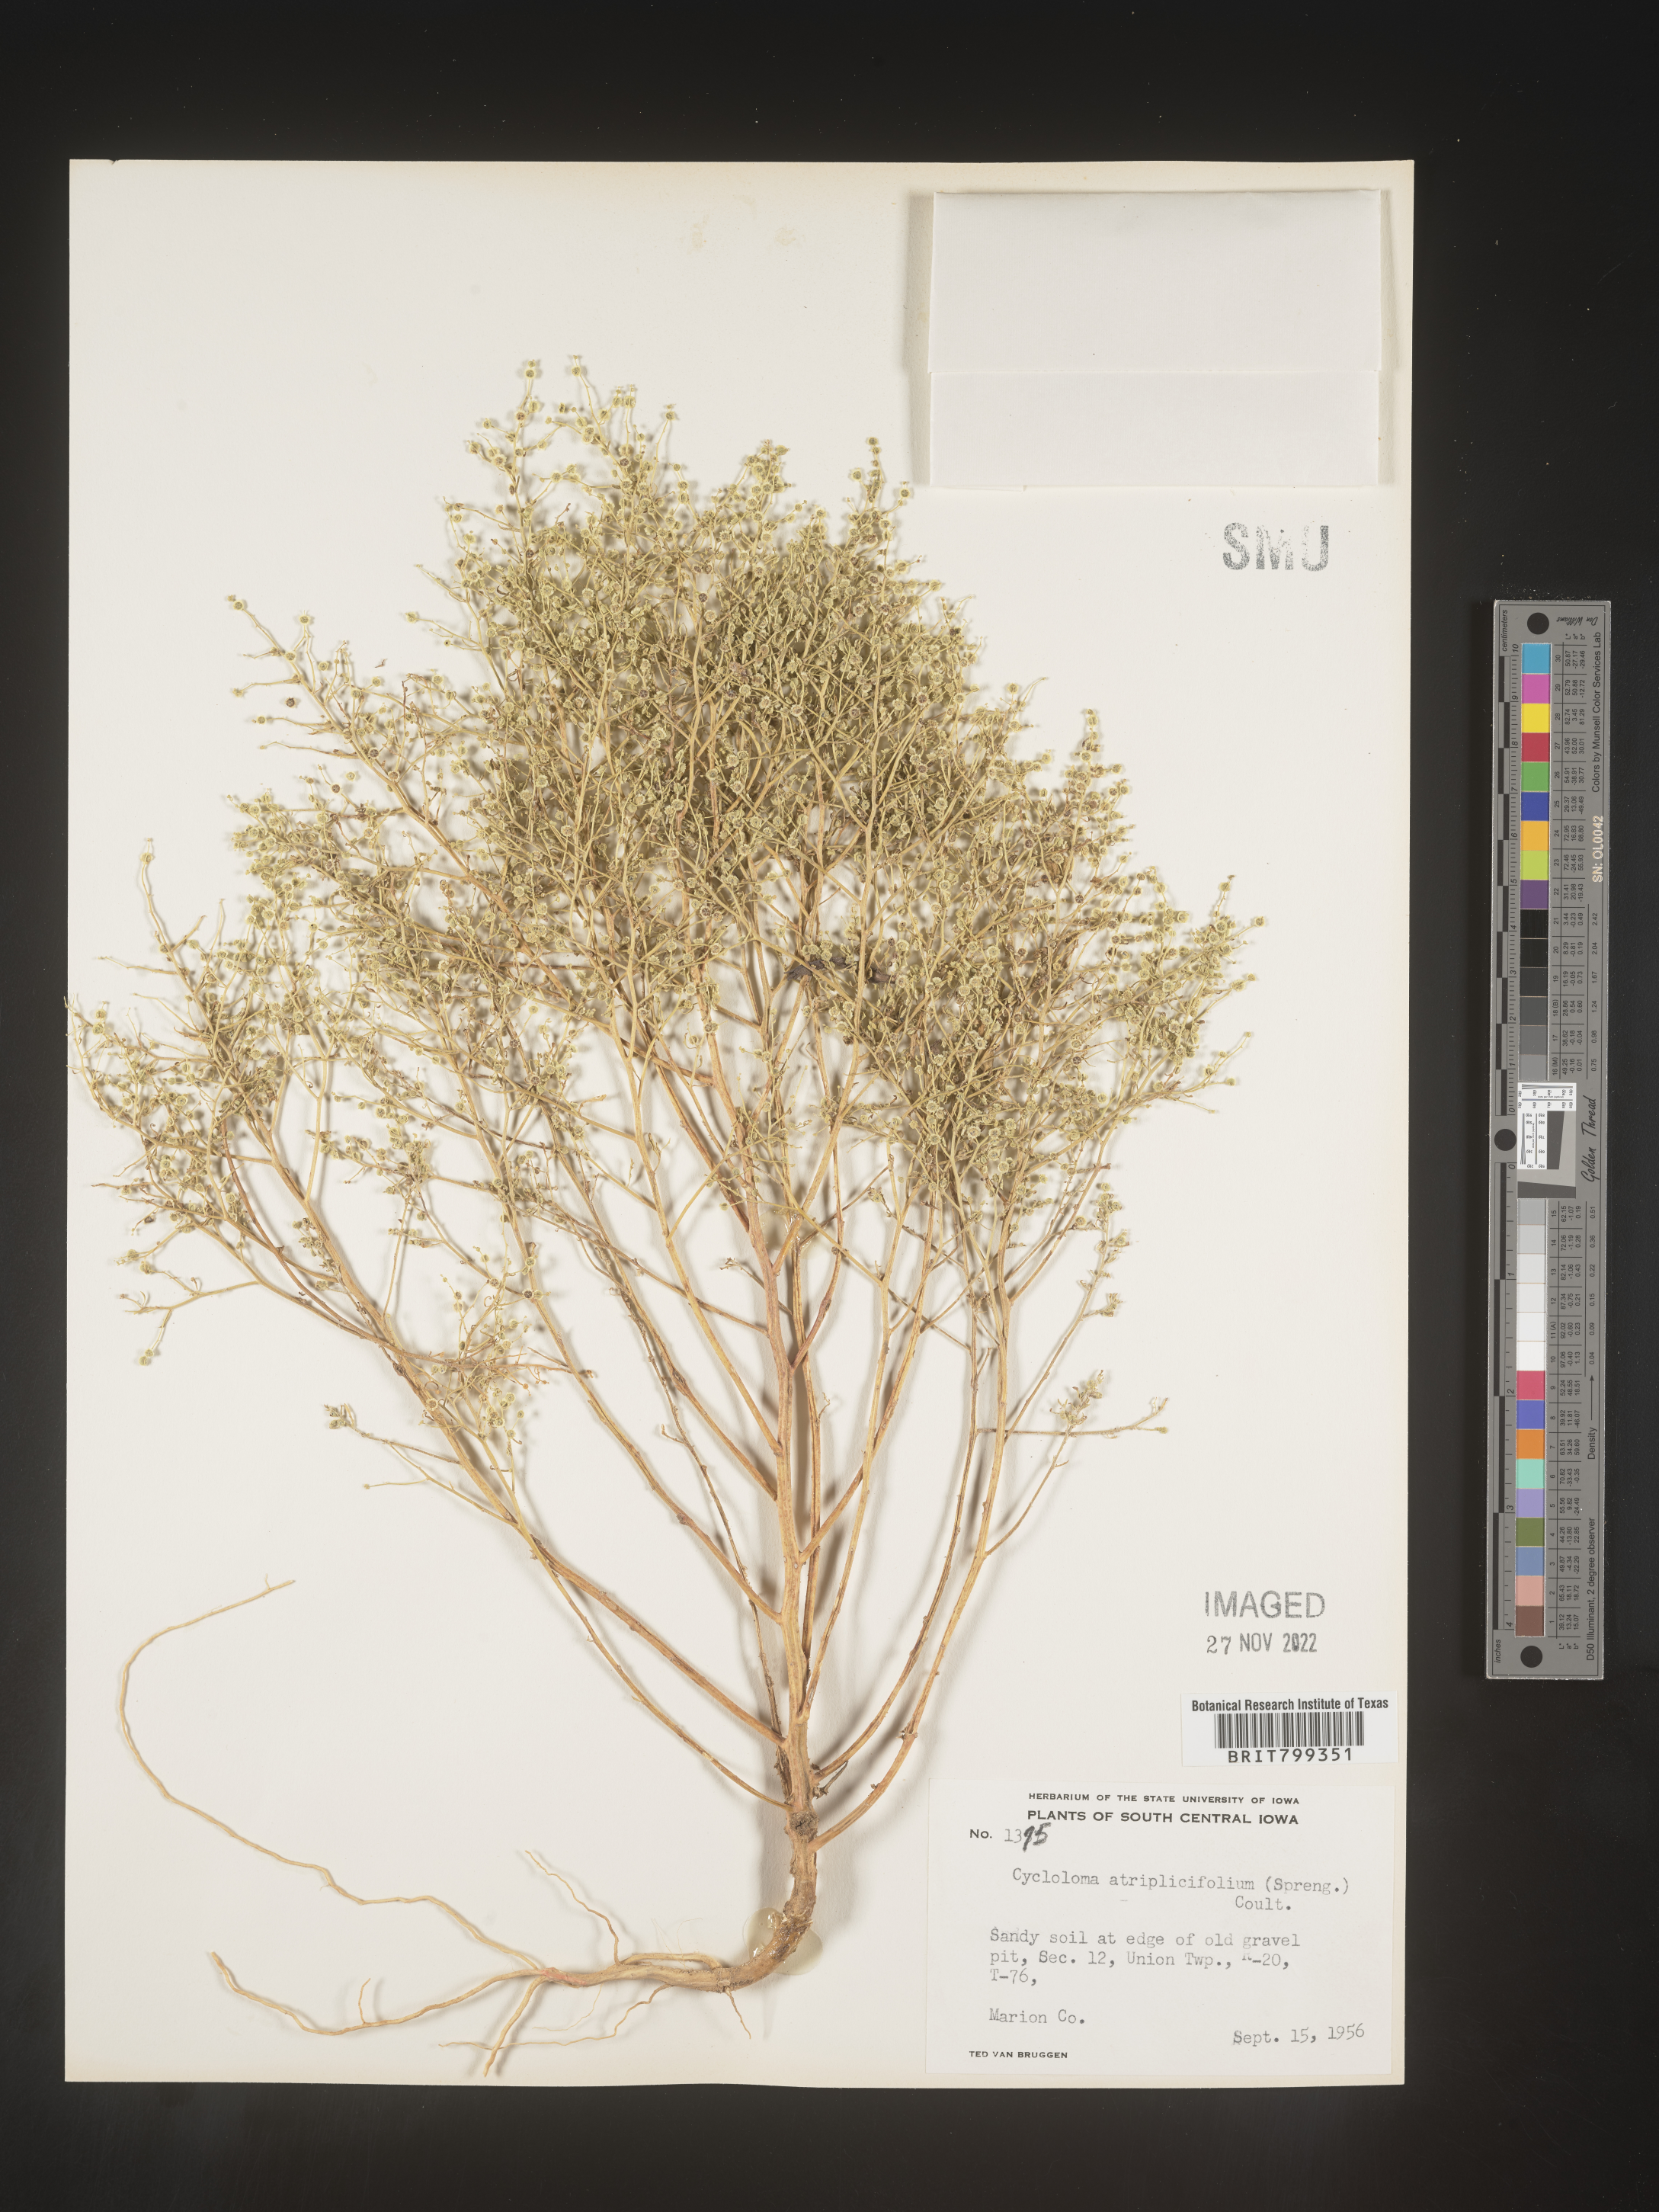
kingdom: Plantae
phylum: Tracheophyta
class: Magnoliopsida
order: Caryophyllales
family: Amaranthaceae
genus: Dysphania
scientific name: Dysphania atriplicifolia
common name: Plains tumbleweed
